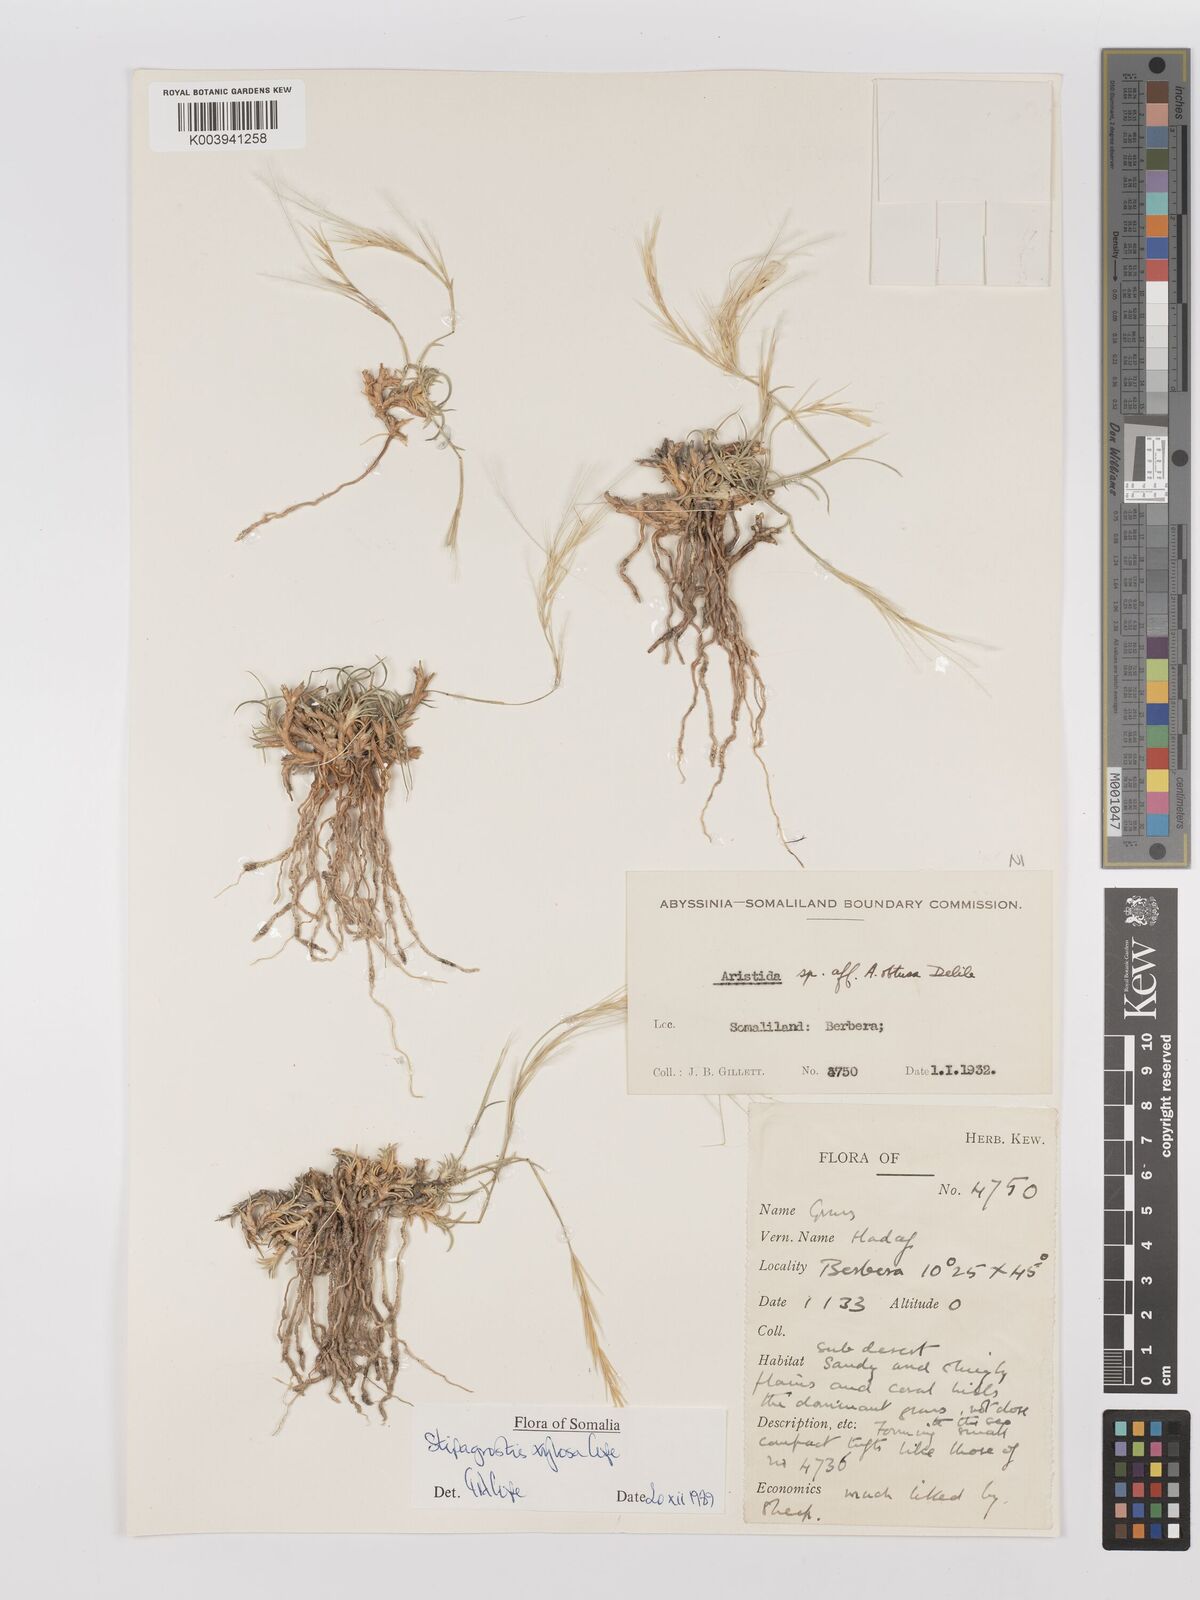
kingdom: Plantae
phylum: Tracheophyta
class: Liliopsida
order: Poales
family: Poaceae
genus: Stipagrostis
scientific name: Stipagrostis xylosa
